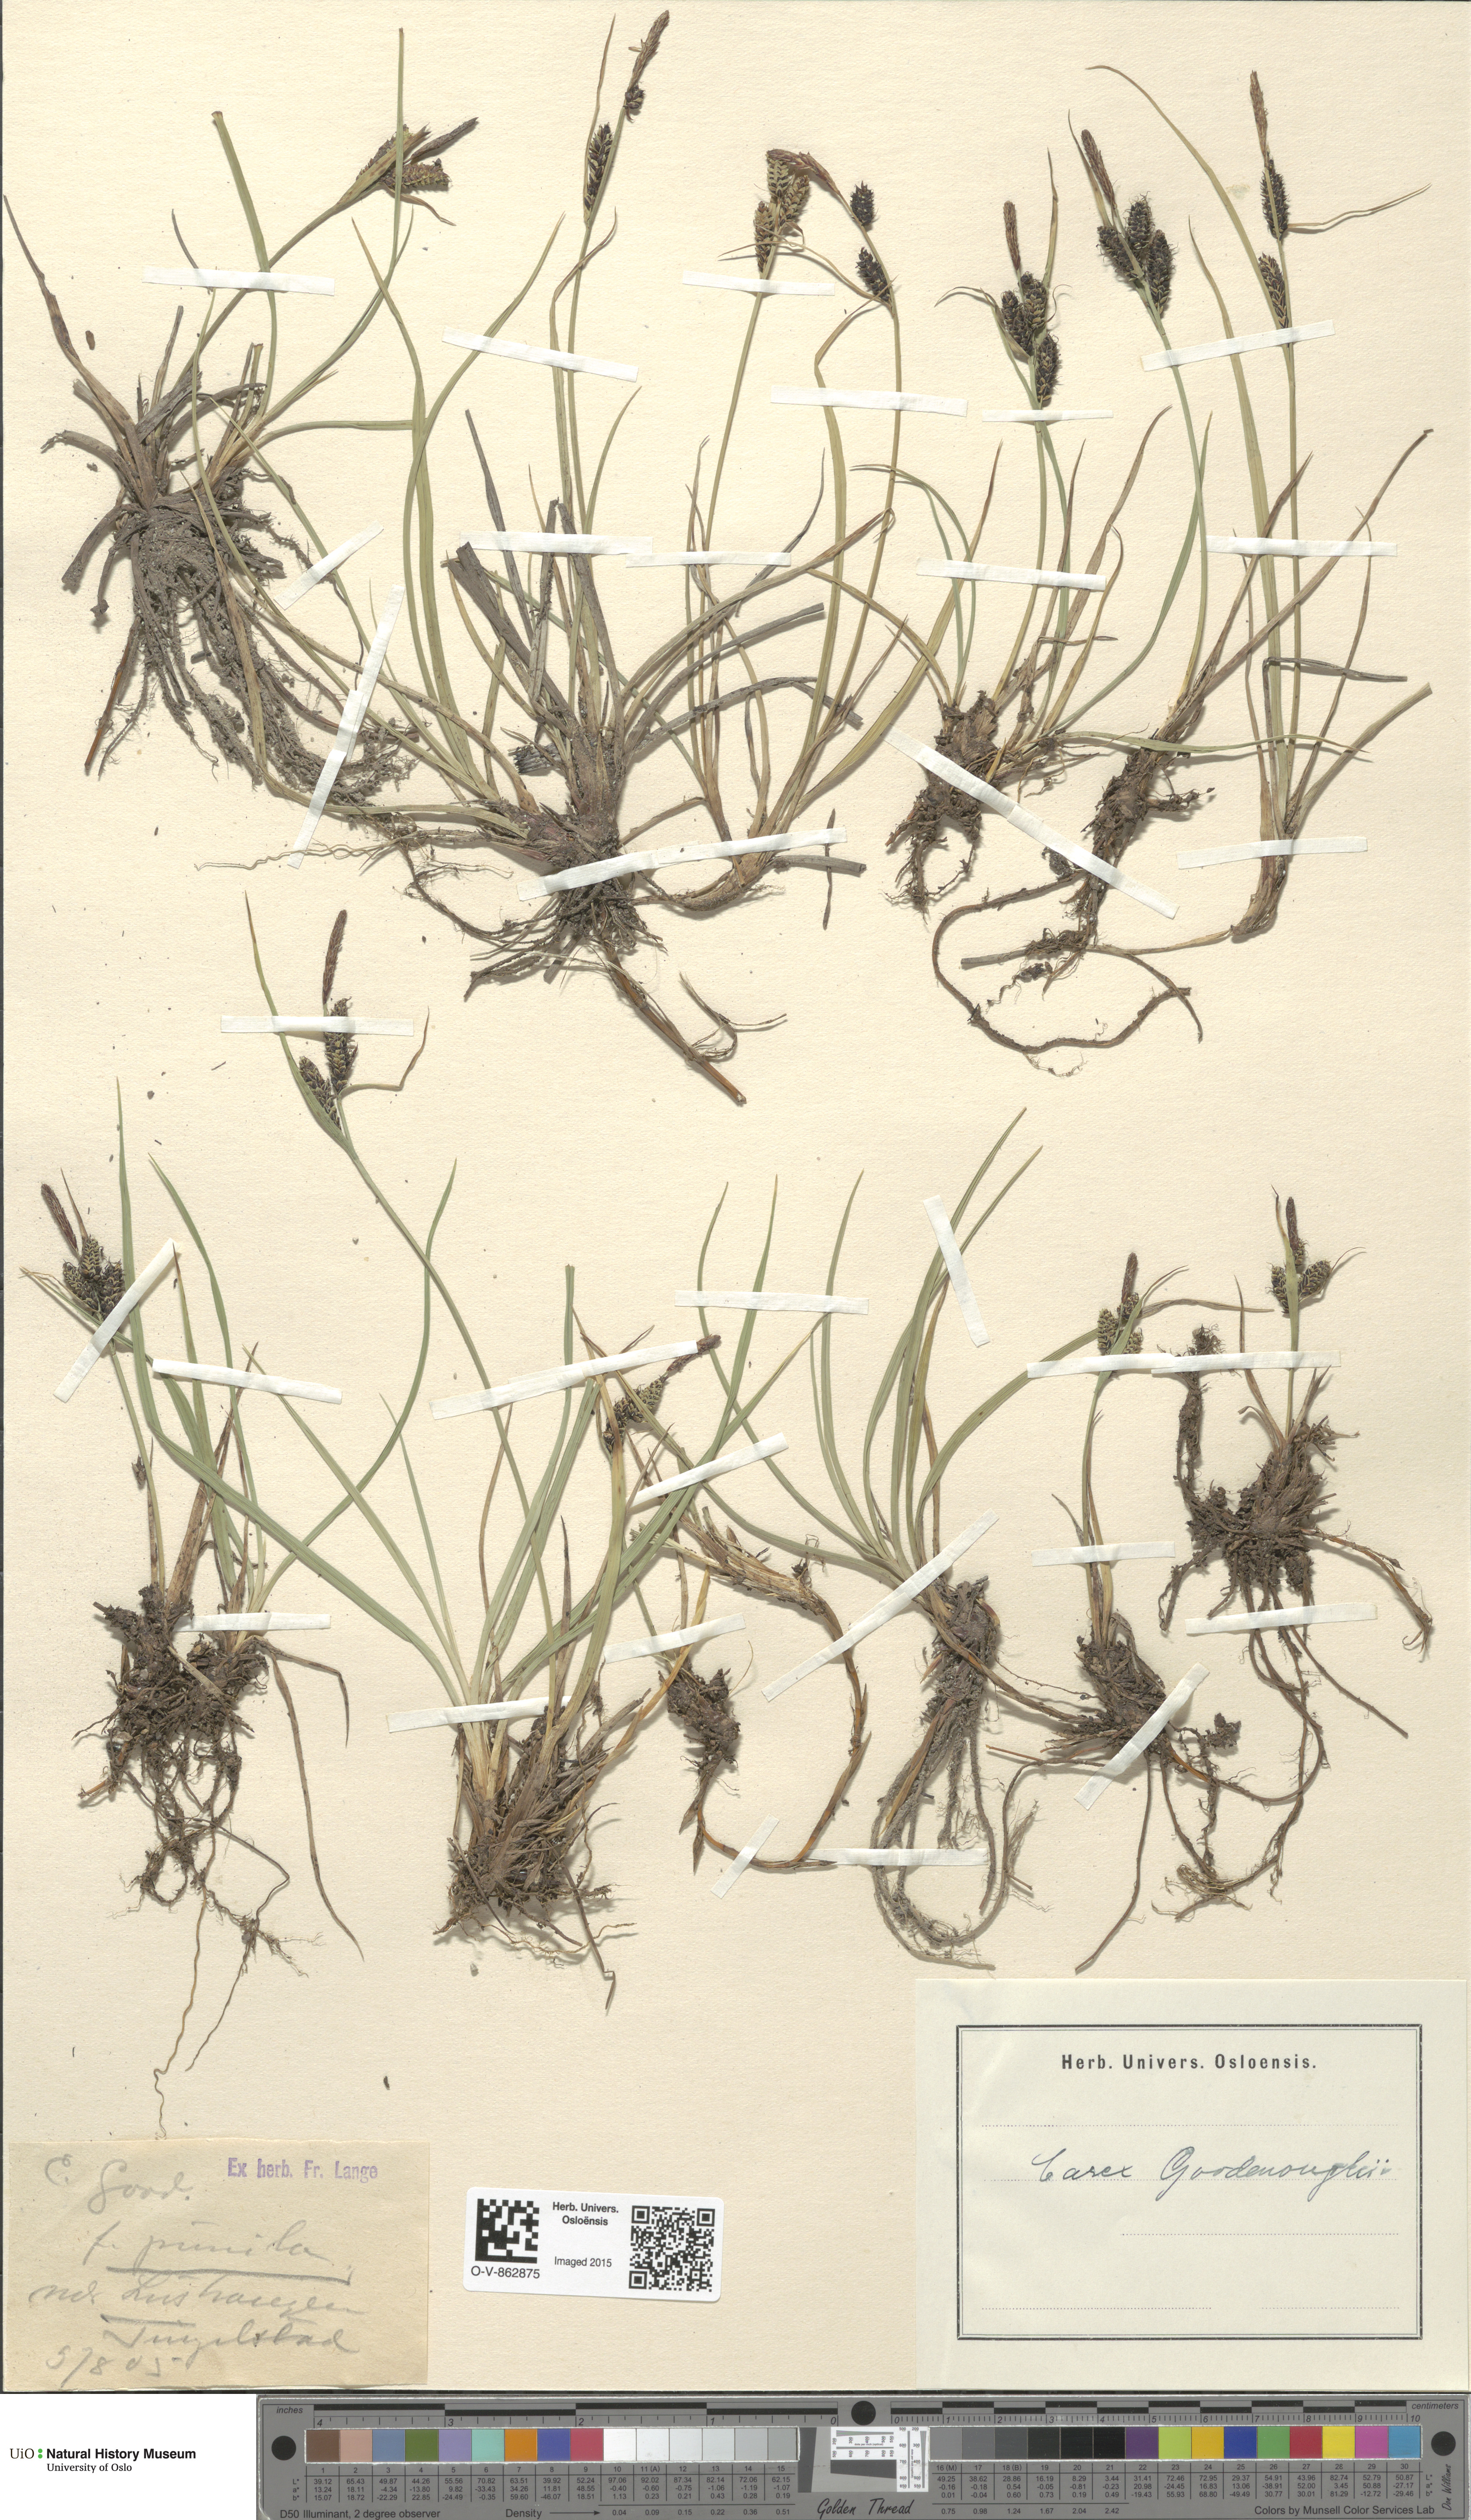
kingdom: Plantae
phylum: Tracheophyta
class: Liliopsida
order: Poales
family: Cyperaceae
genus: Carex
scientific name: Carex nigra
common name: Common sedge
